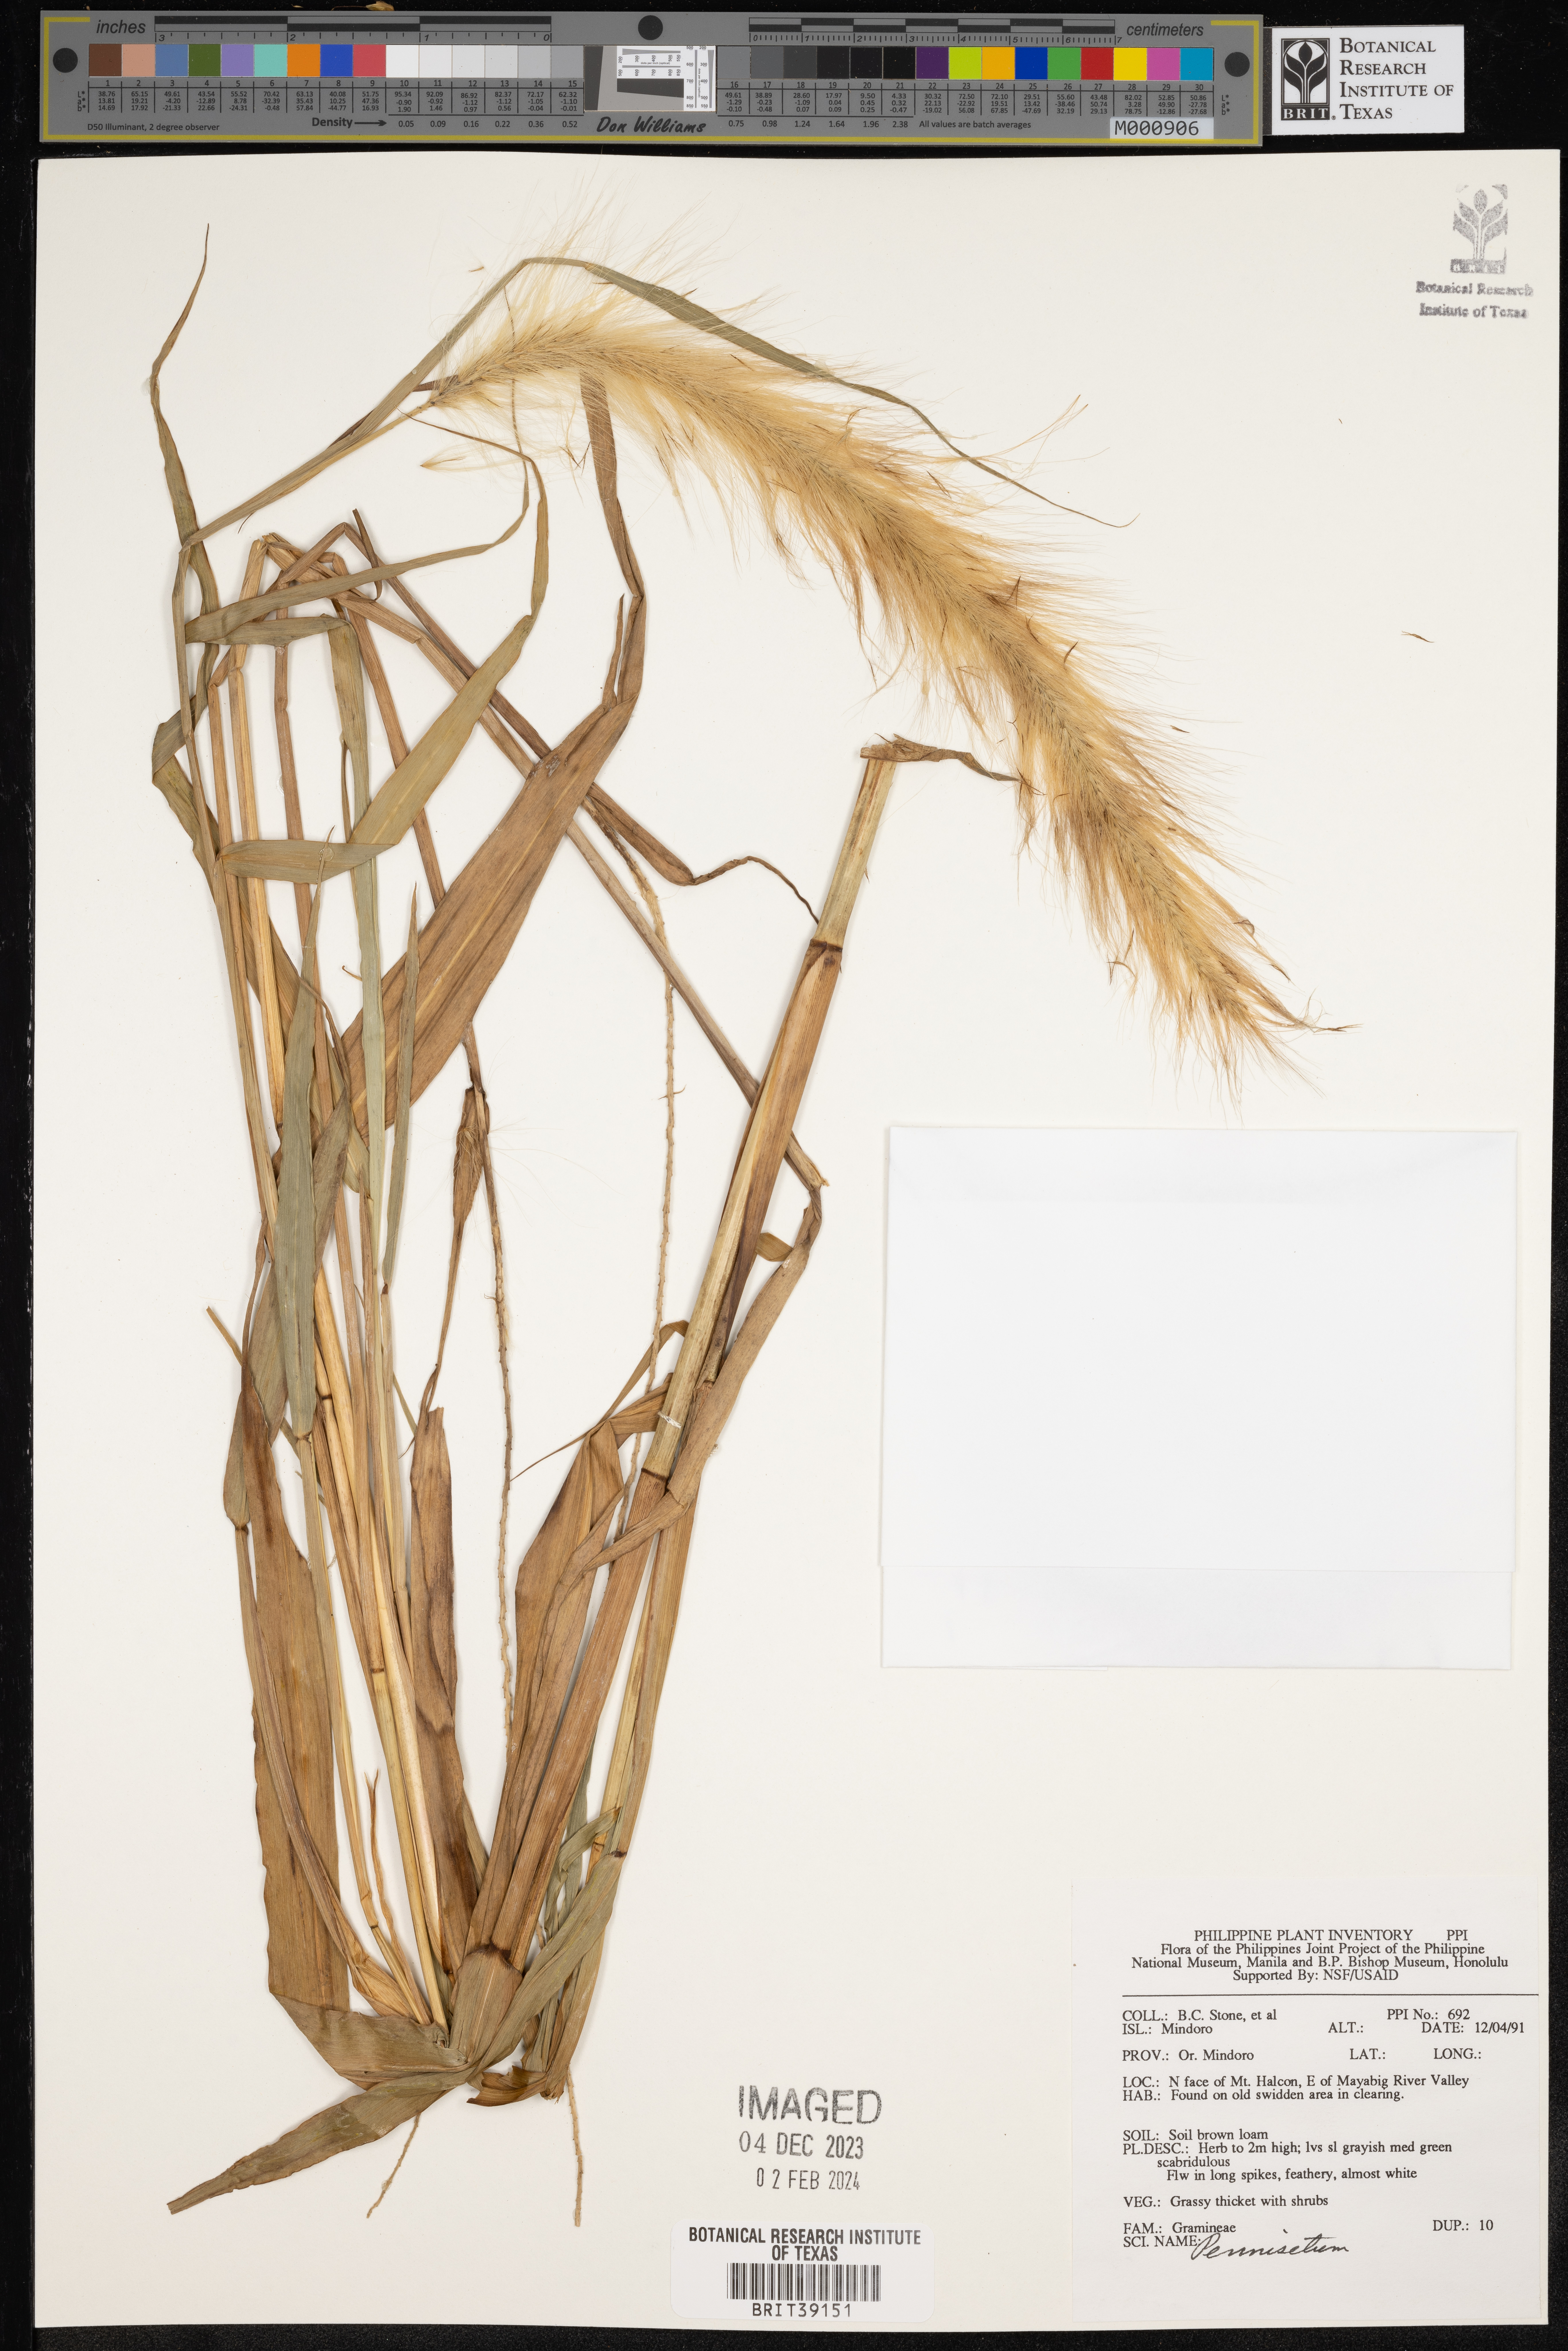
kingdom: Plantae
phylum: Tracheophyta
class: Liliopsida
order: Poales
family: Poaceae
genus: Cenchrus
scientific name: Cenchrus Pennisetum spec
